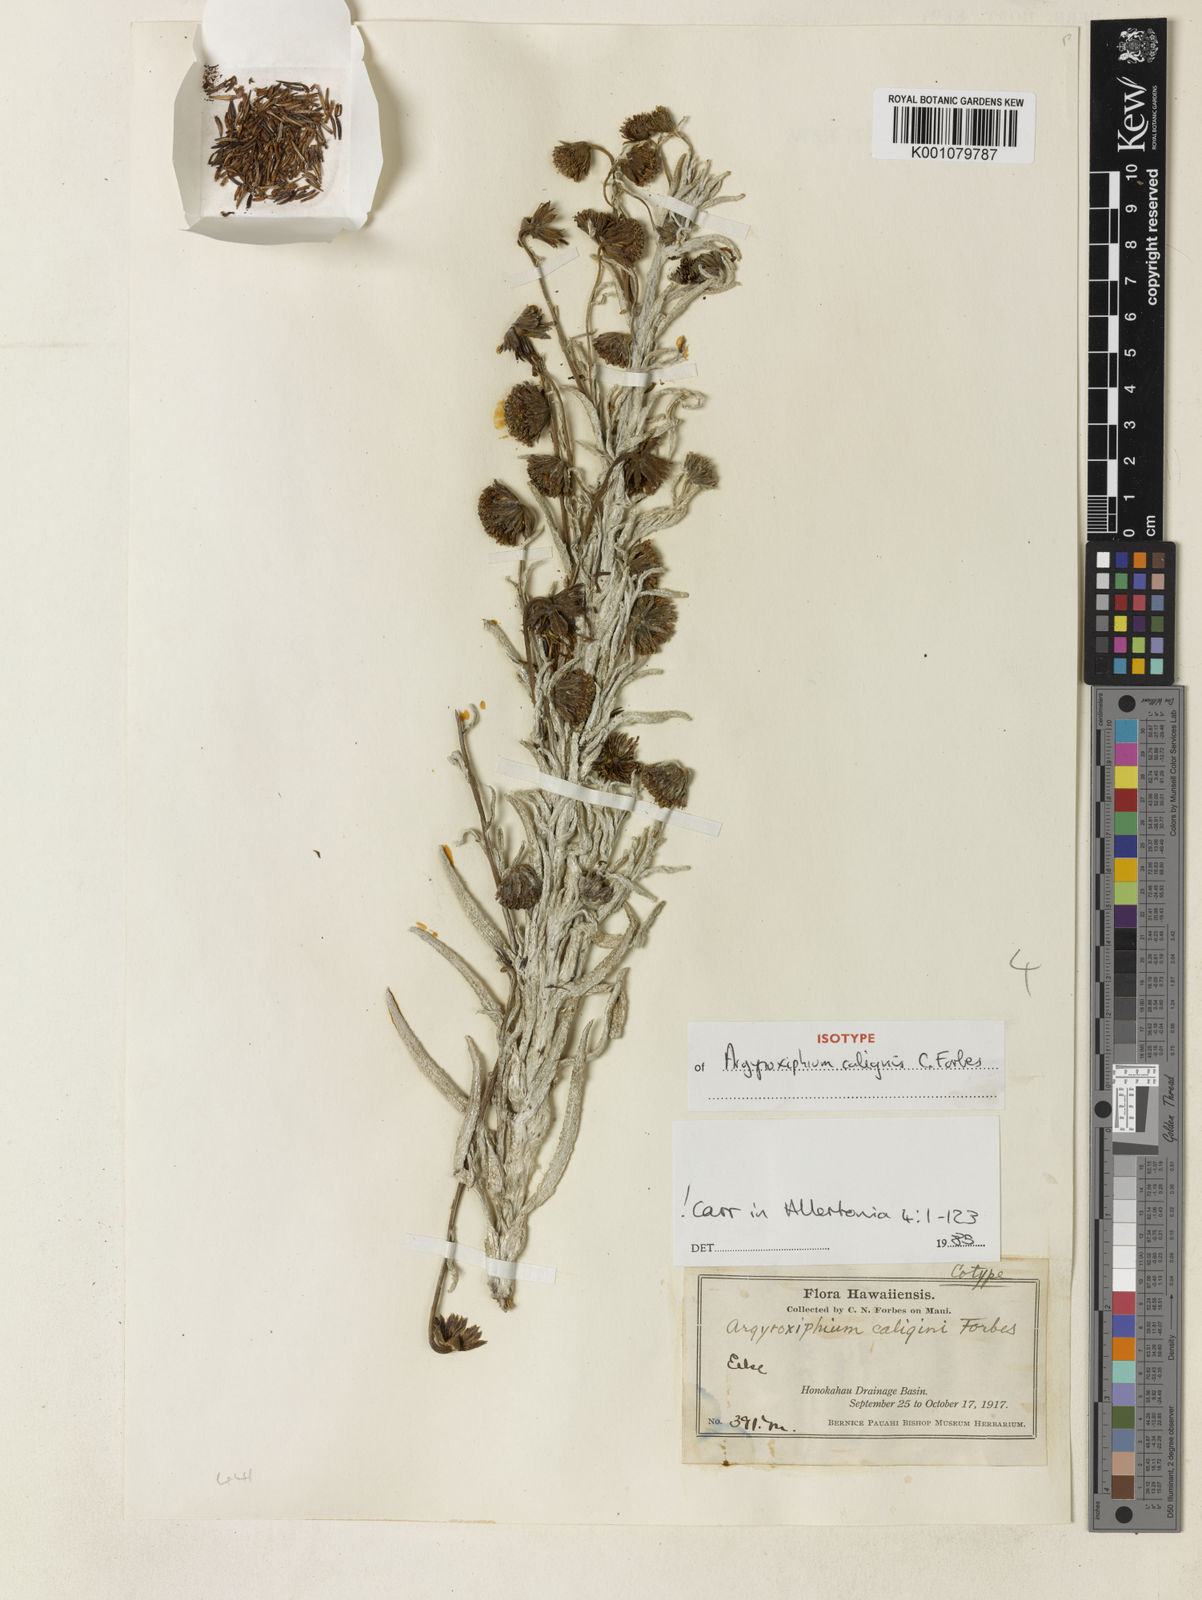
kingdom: Plantae
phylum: Tracheophyta
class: Magnoliopsida
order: Asterales
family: Asteraceae
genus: Argyroxiphium
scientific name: Argyroxiphium
